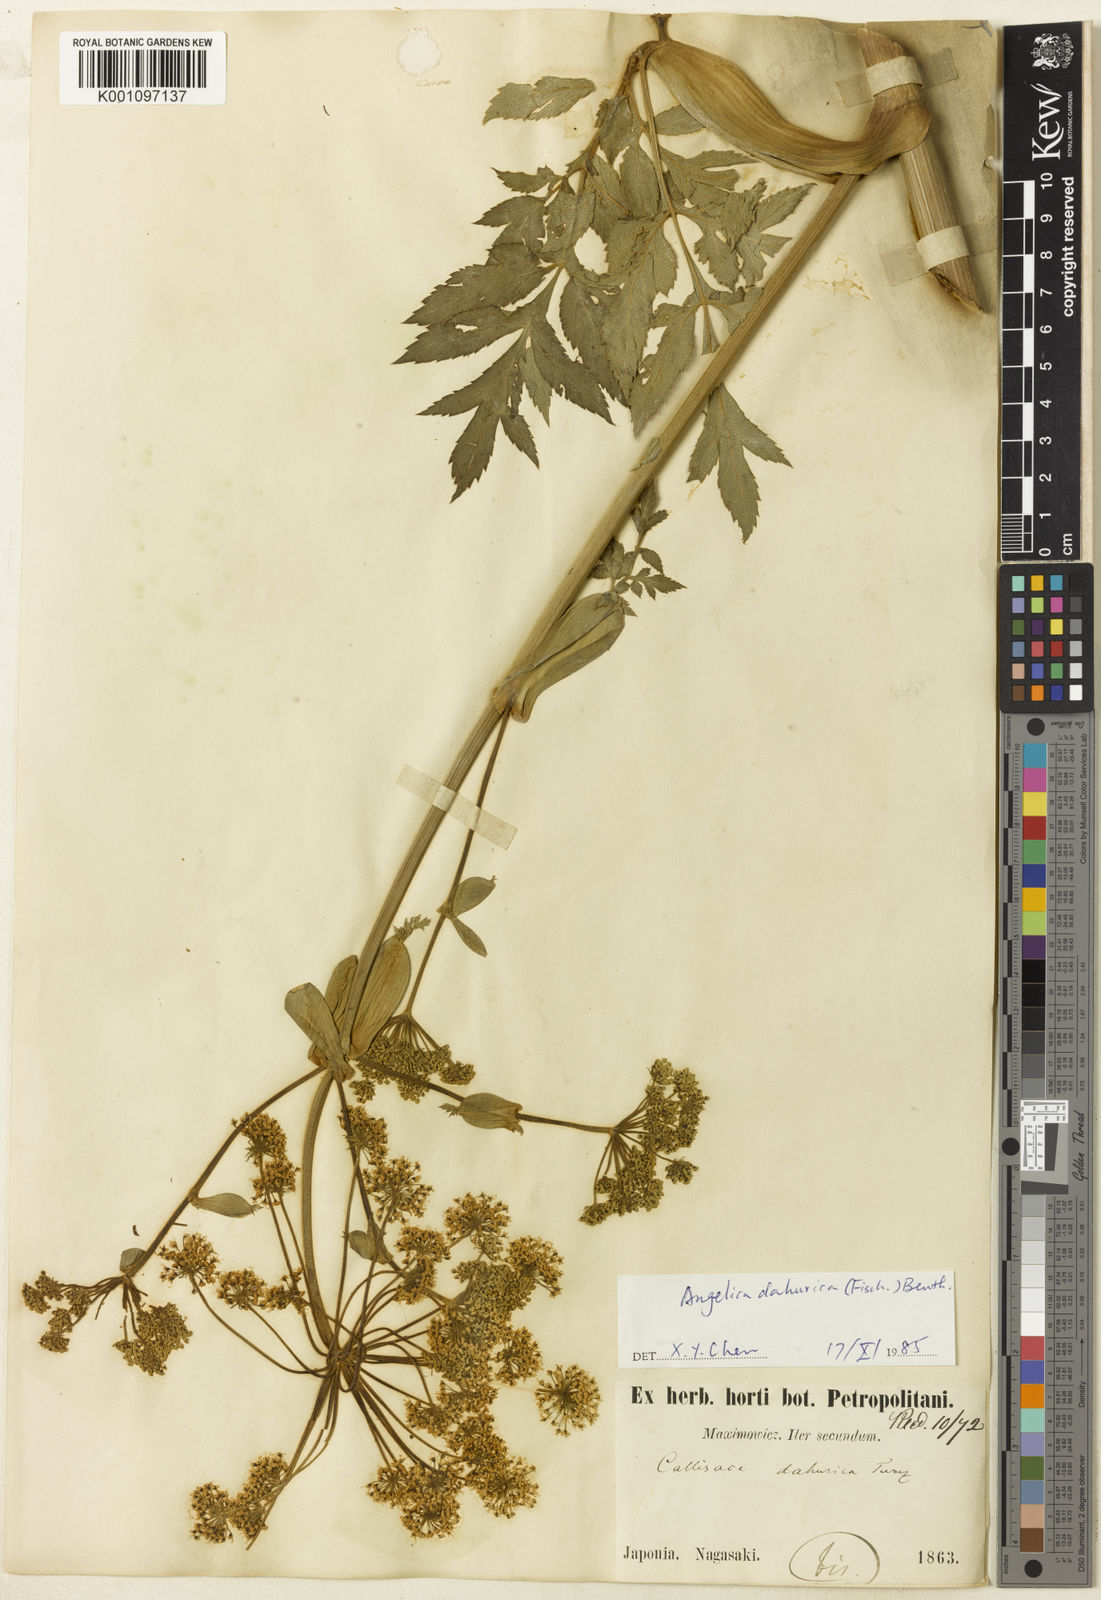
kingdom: Plantae
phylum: Tracheophyta
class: Magnoliopsida
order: Apiales
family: Apiaceae
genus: Angelica
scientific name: Angelica dahurica
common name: Dahurian angelica
